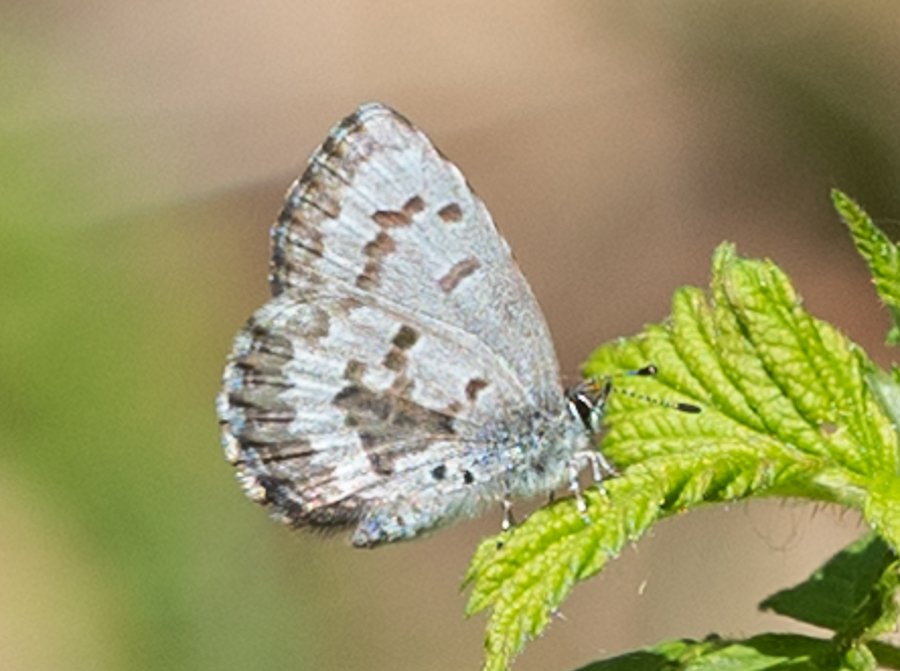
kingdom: Animalia
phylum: Arthropoda
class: Insecta
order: Lepidoptera
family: Lycaenidae
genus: Celastrina
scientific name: Celastrina lucia
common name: Northern Spring Azure
